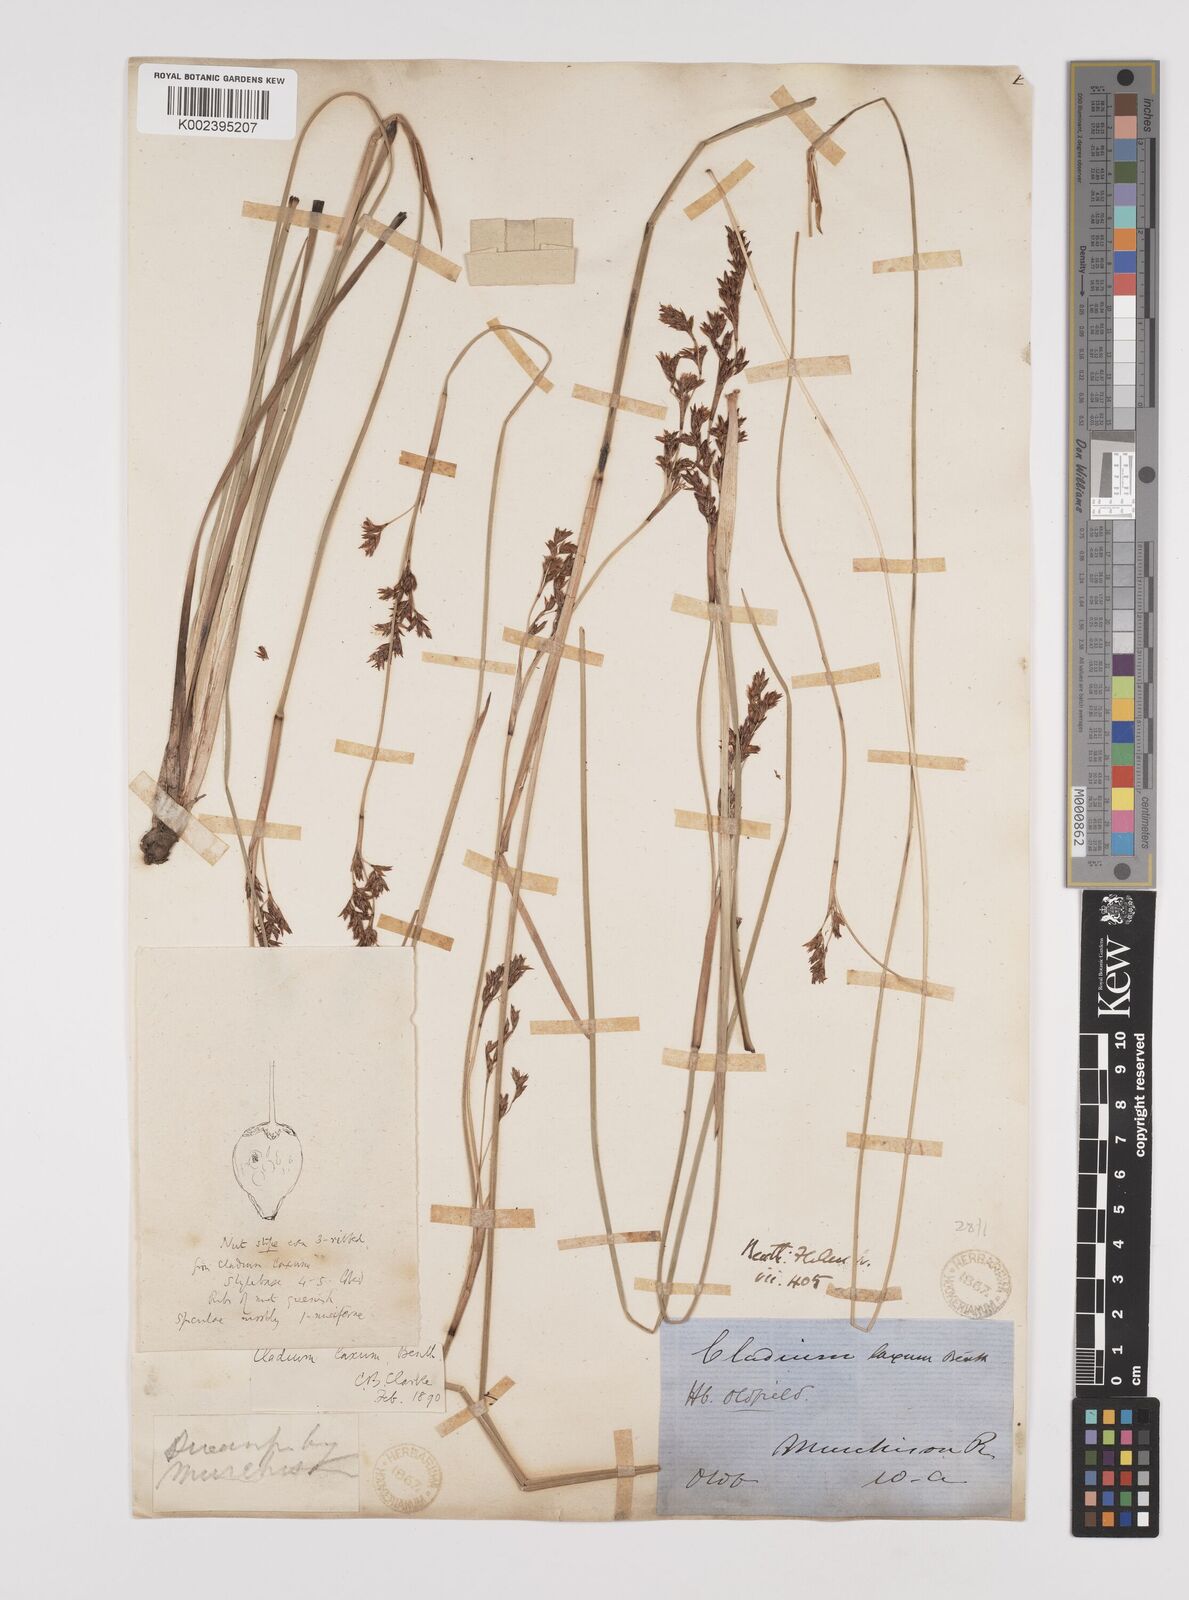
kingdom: Plantae
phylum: Tracheophyta
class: Liliopsida
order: Poales
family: Cyperaceae
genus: Machaerina
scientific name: Machaerina laxa
